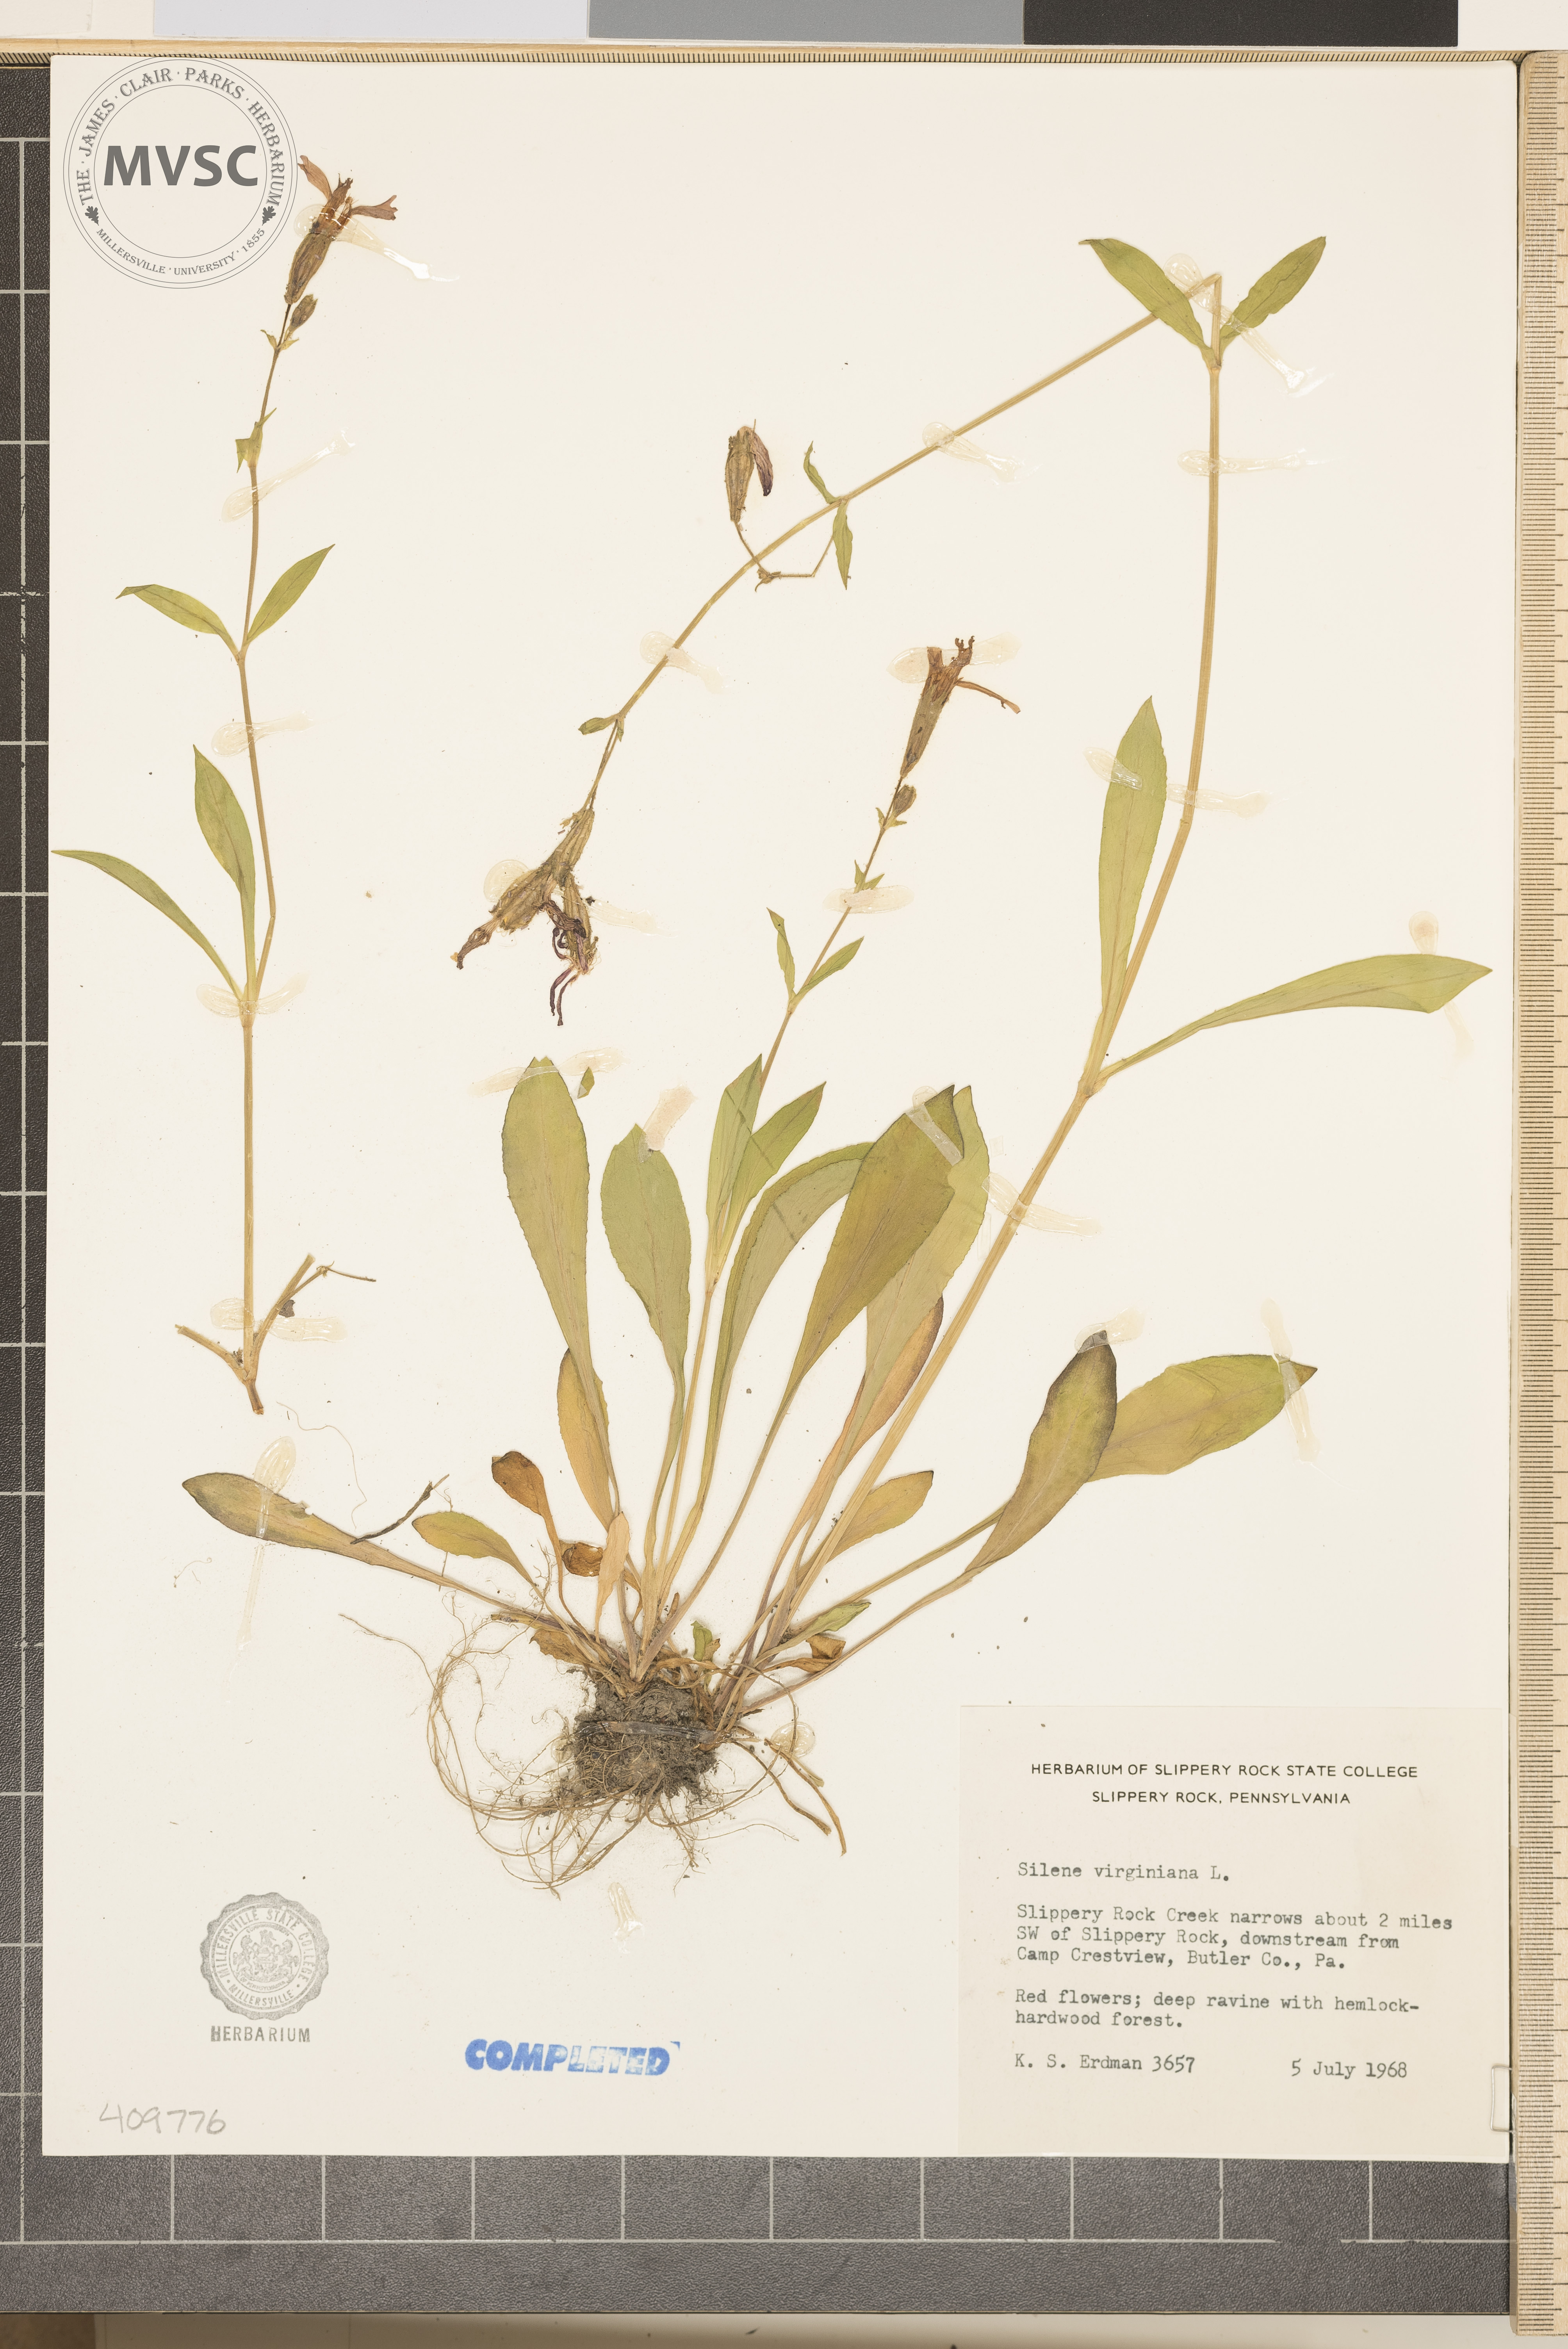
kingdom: Plantae
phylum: Tracheophyta
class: Magnoliopsida
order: Caryophyllales
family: Caryophyllaceae
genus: Silene
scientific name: Silene virginica
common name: Fire-pink
